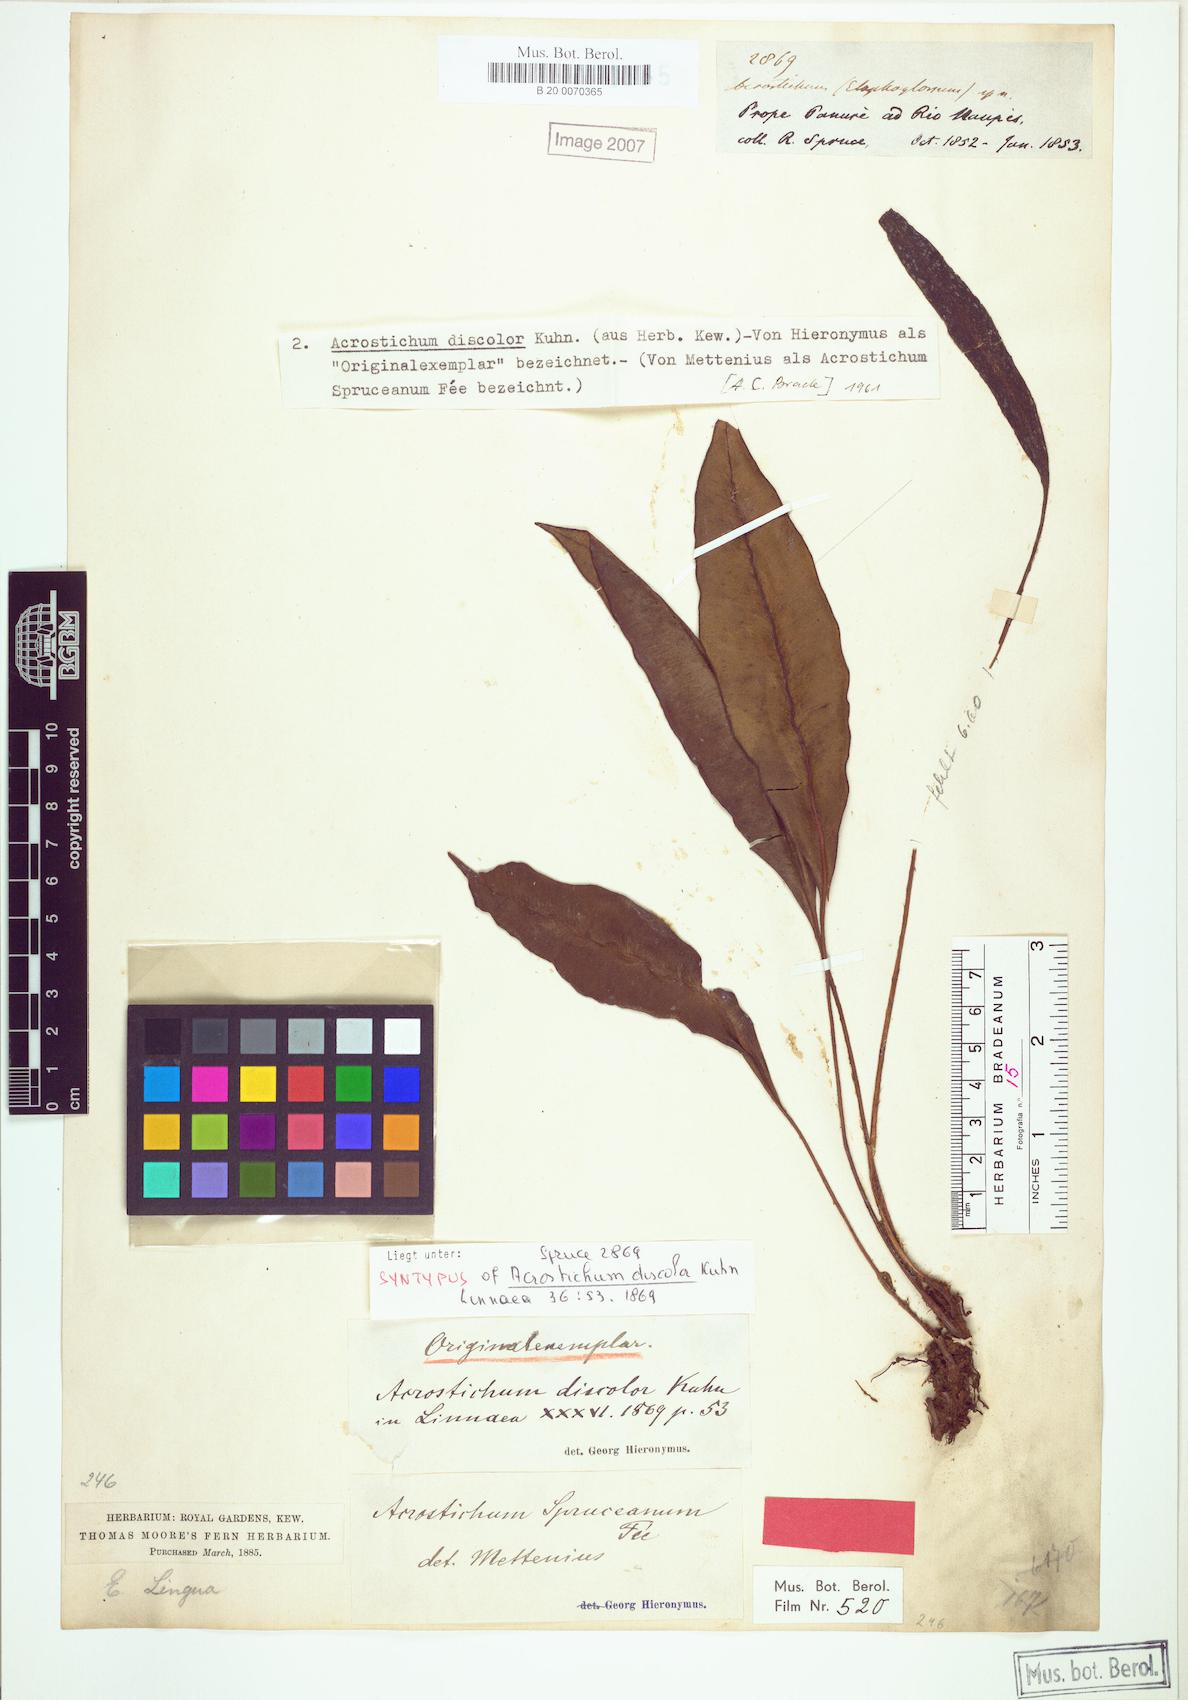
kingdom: Plantae
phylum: Tracheophyta
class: Polypodiopsida
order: Polypodiales
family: Dryopteridaceae
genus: Elaphoglossum
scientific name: Elaphoglossum discolor
